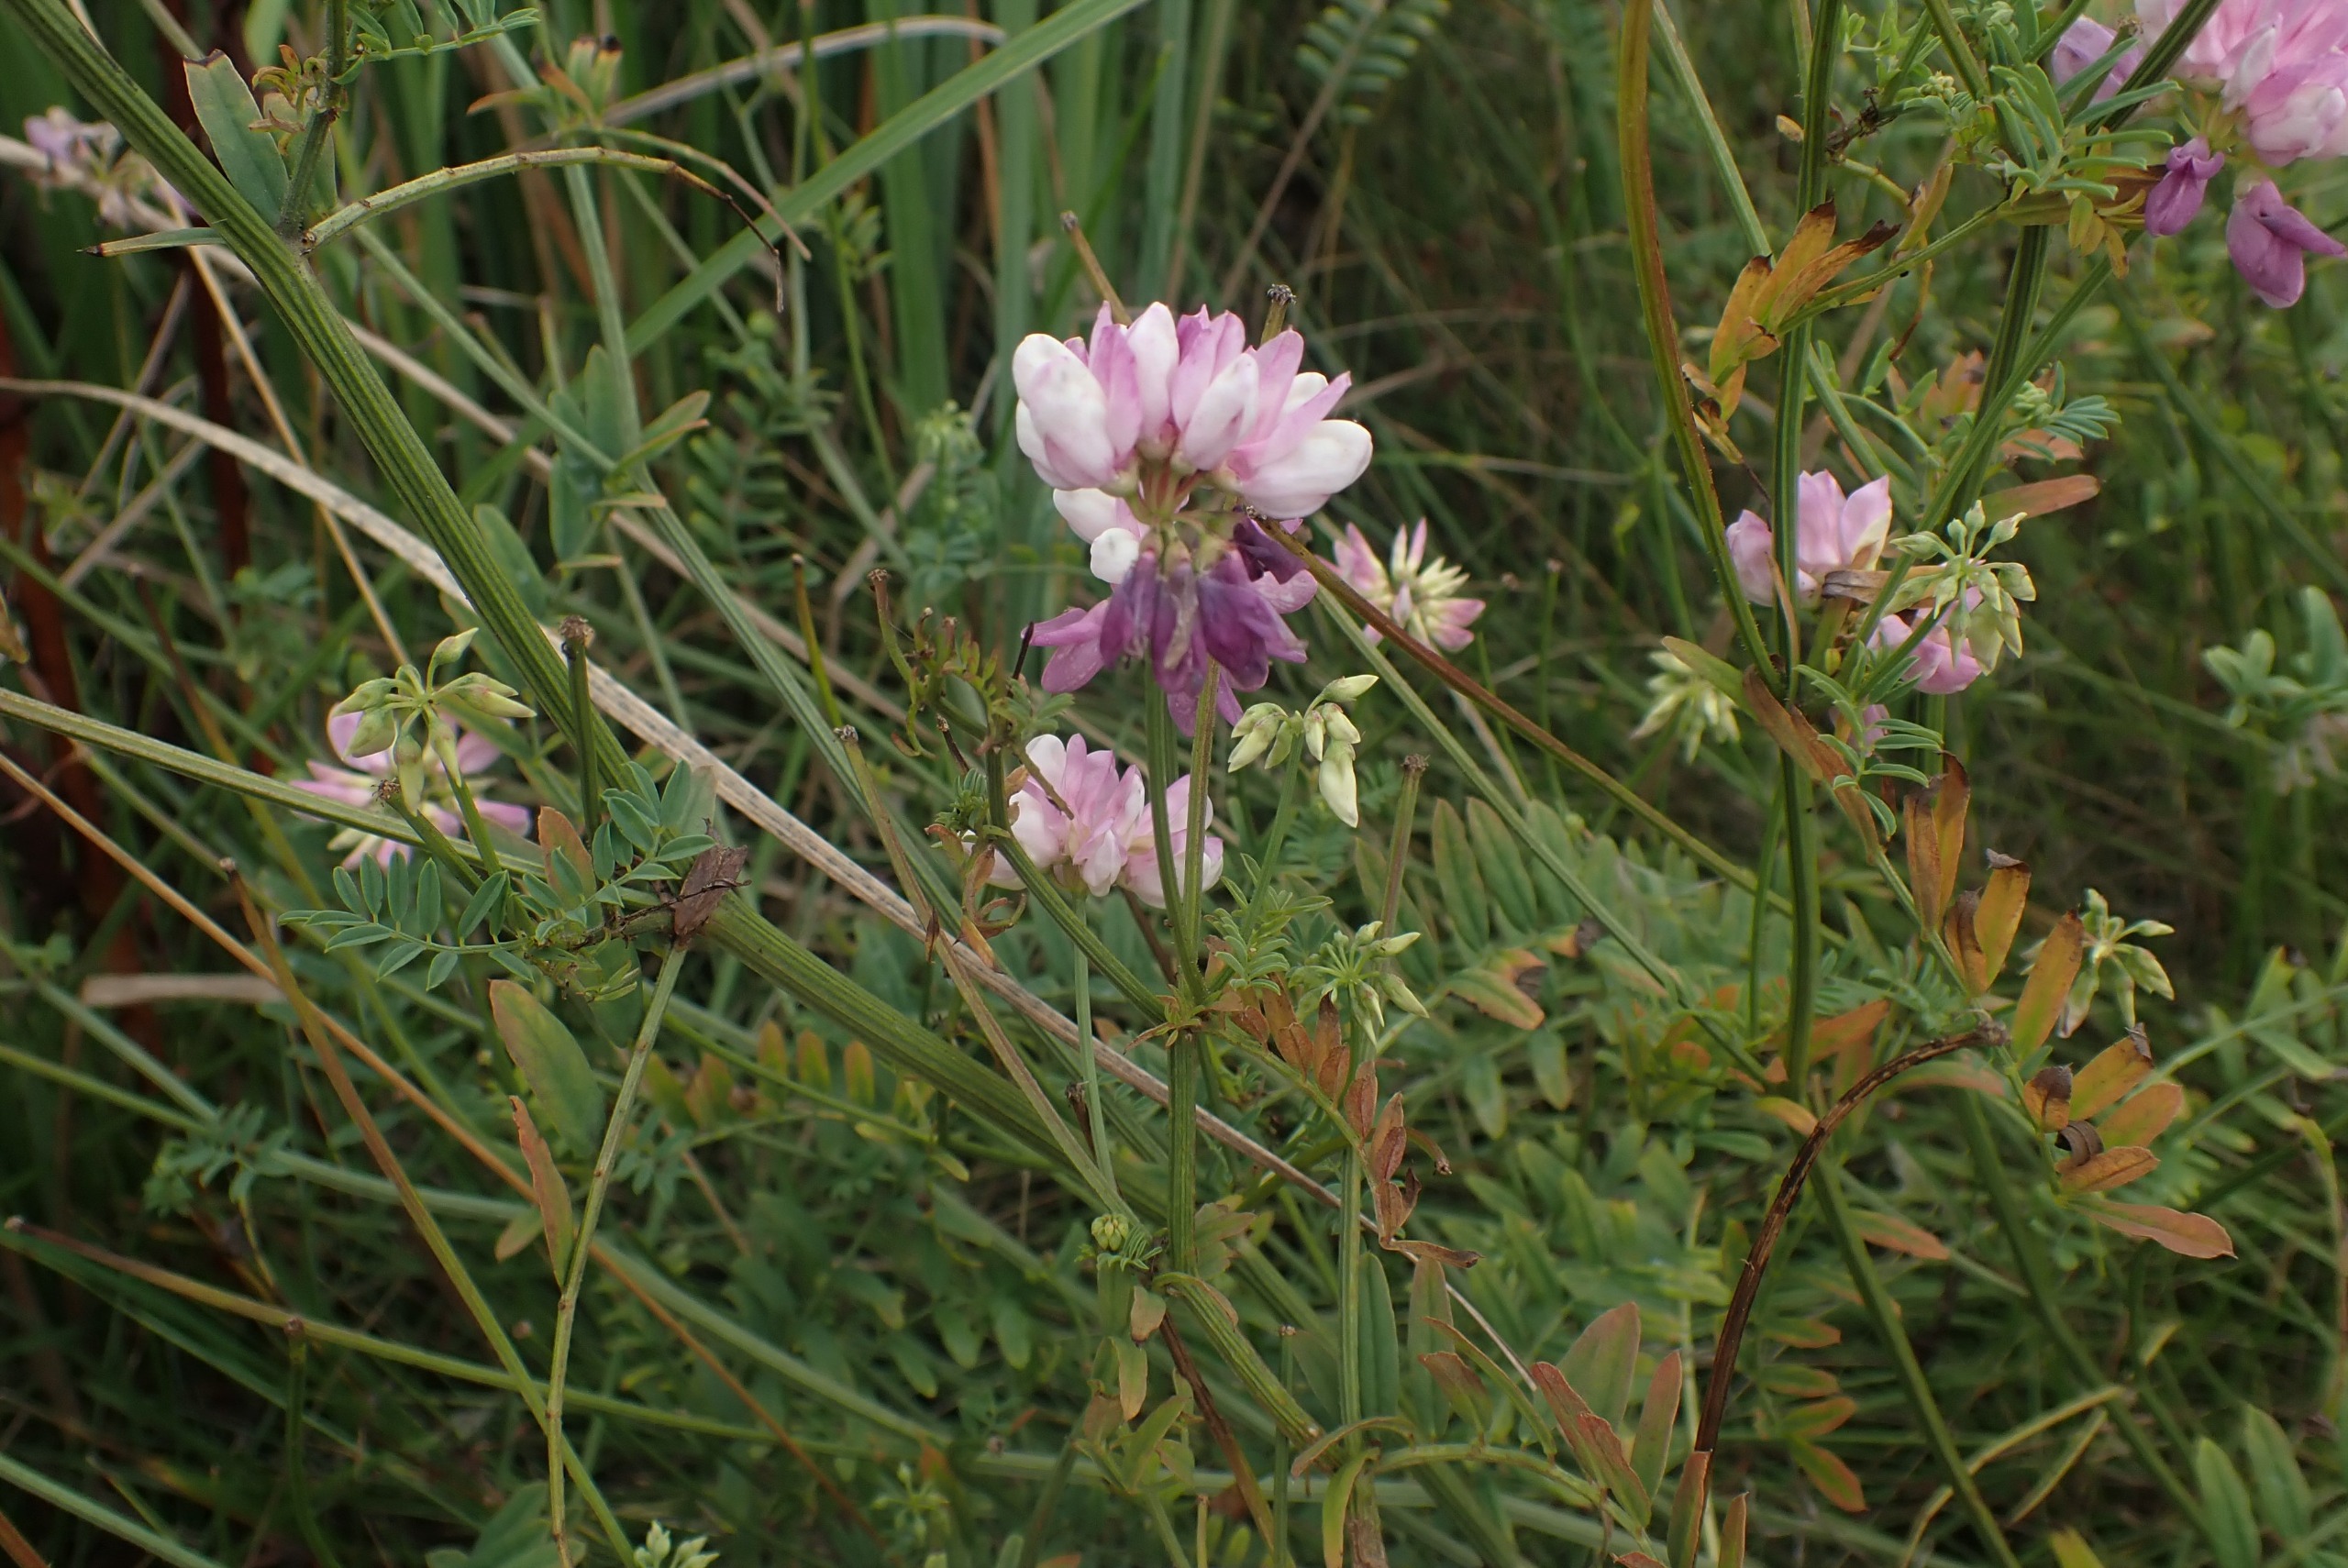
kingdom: Plantae
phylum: Tracheophyta
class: Magnoliopsida
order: Fabales
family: Fabaceae
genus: Coronilla
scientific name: Coronilla varia
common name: Giftig kronvikke
